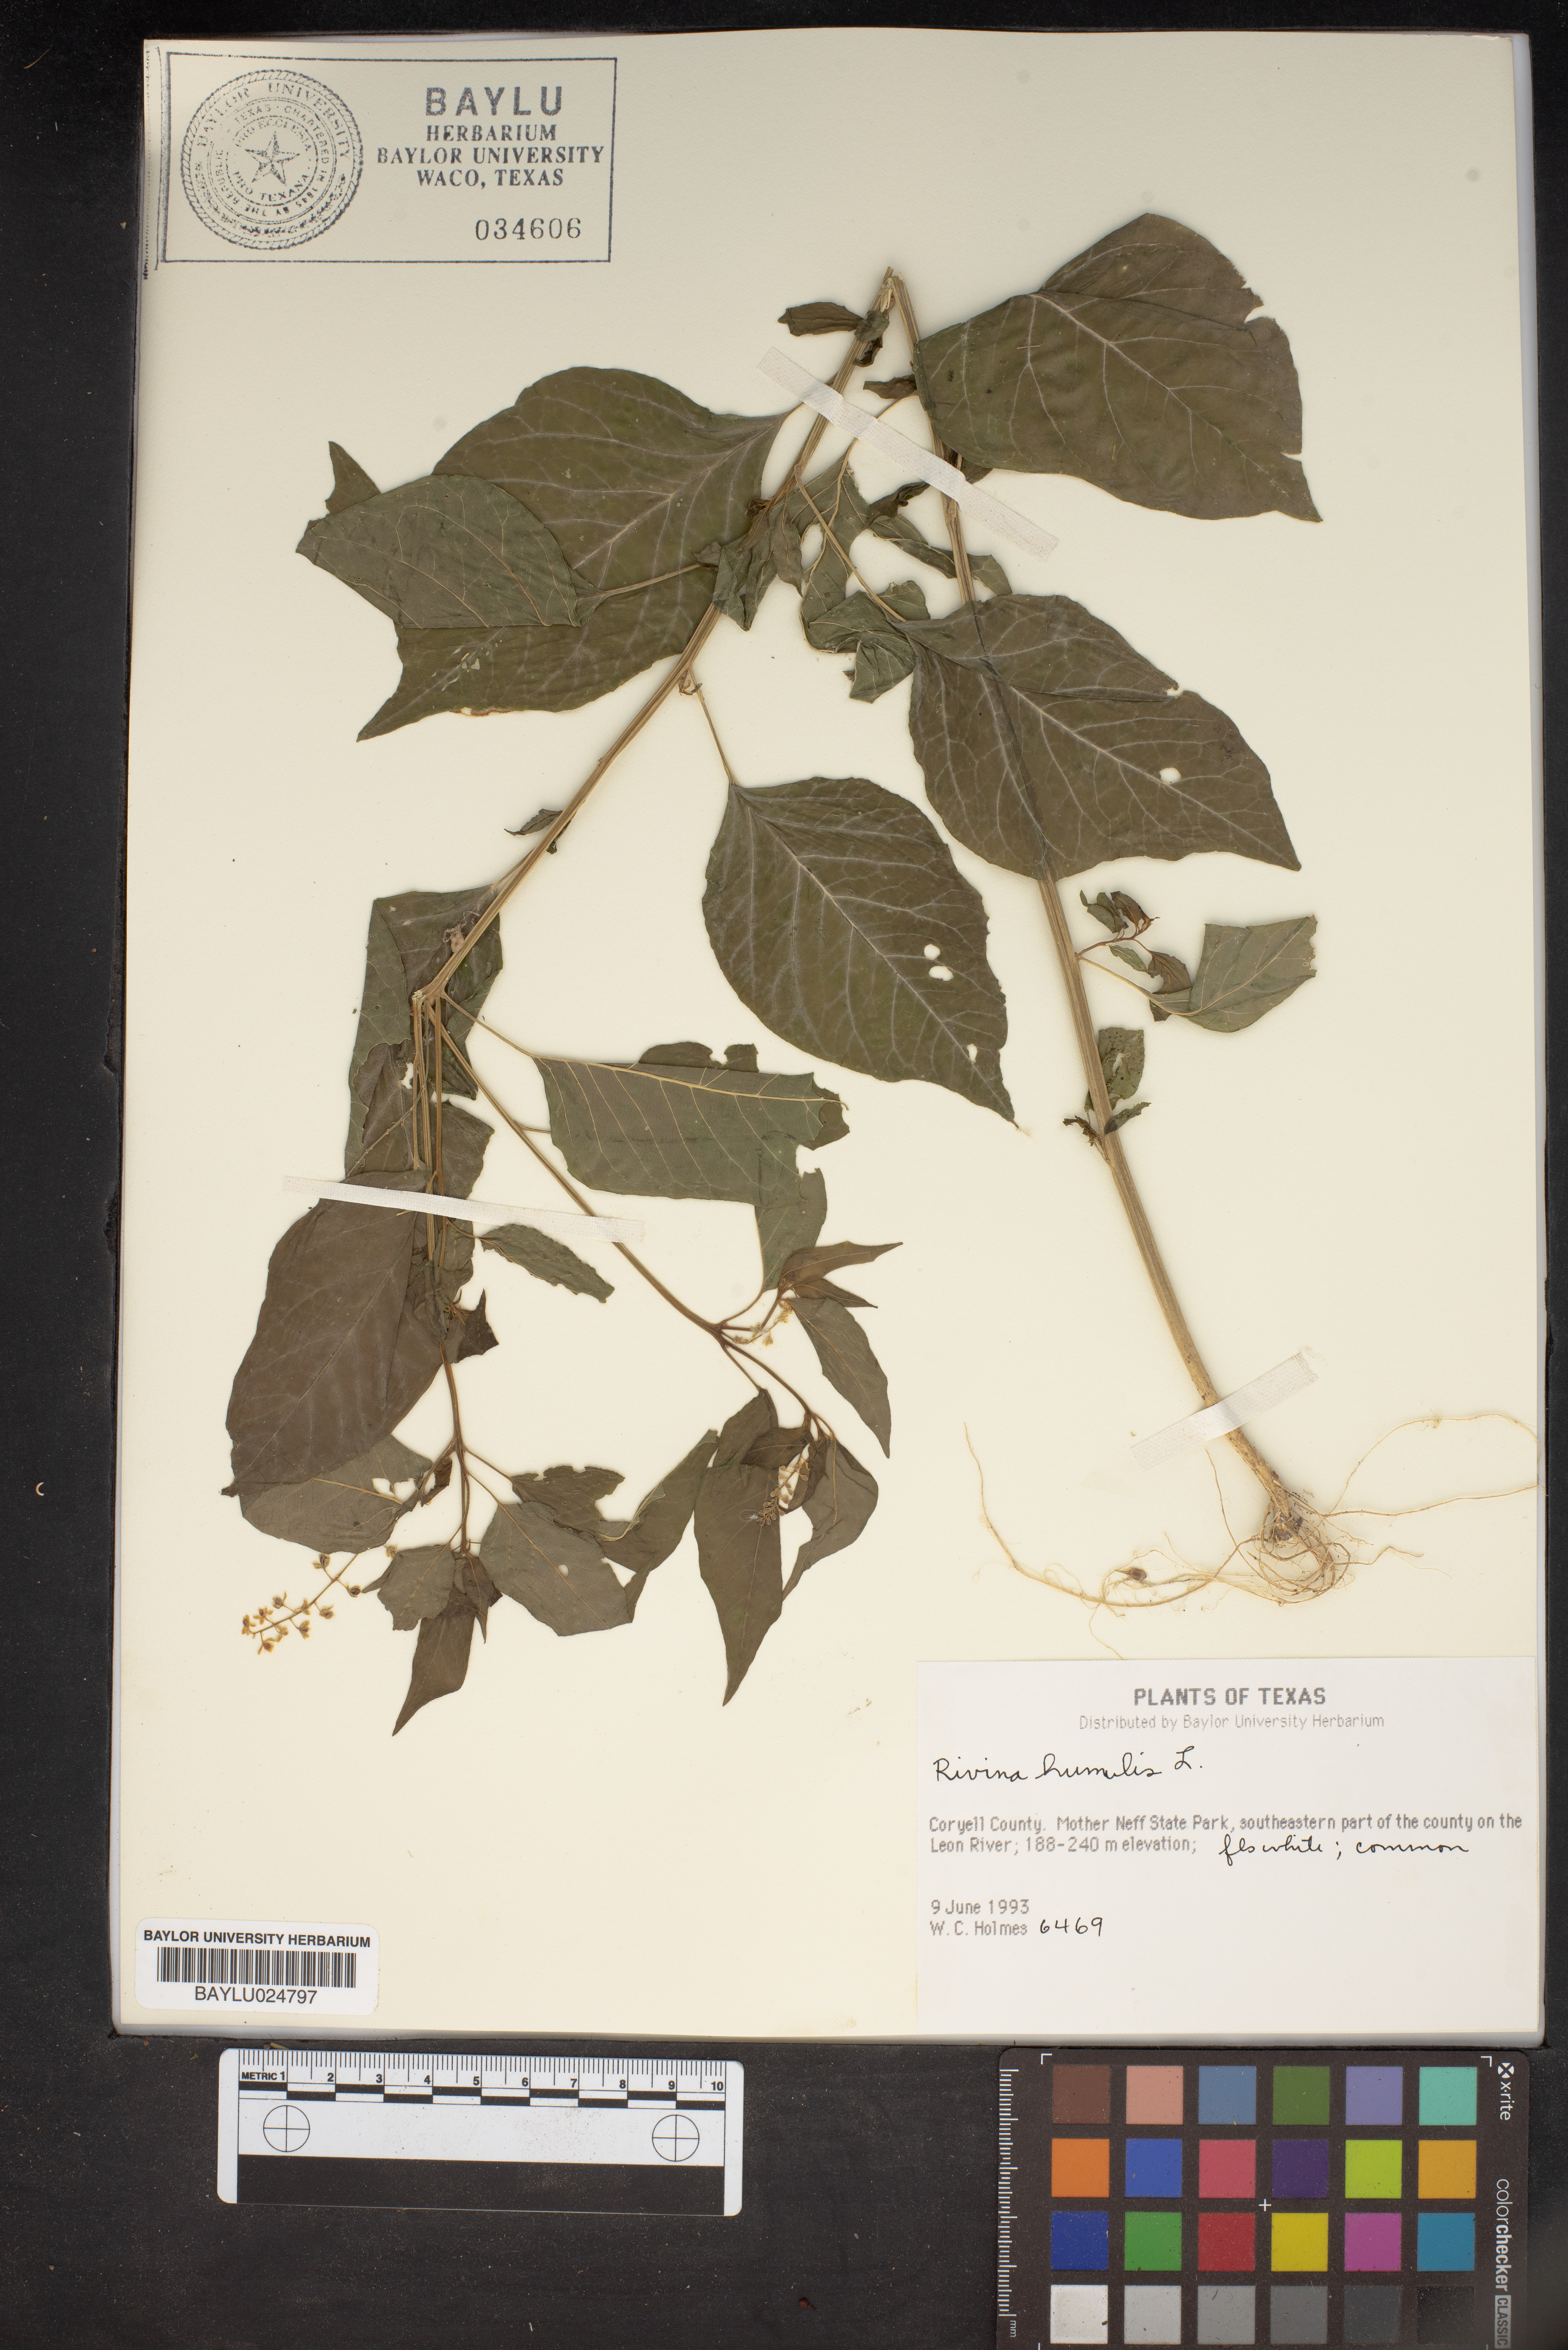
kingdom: Plantae
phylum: Tracheophyta
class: Magnoliopsida
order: Caryophyllales
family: Phytolaccaceae
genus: Rivina
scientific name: Rivina humilis
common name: Rougeplant
